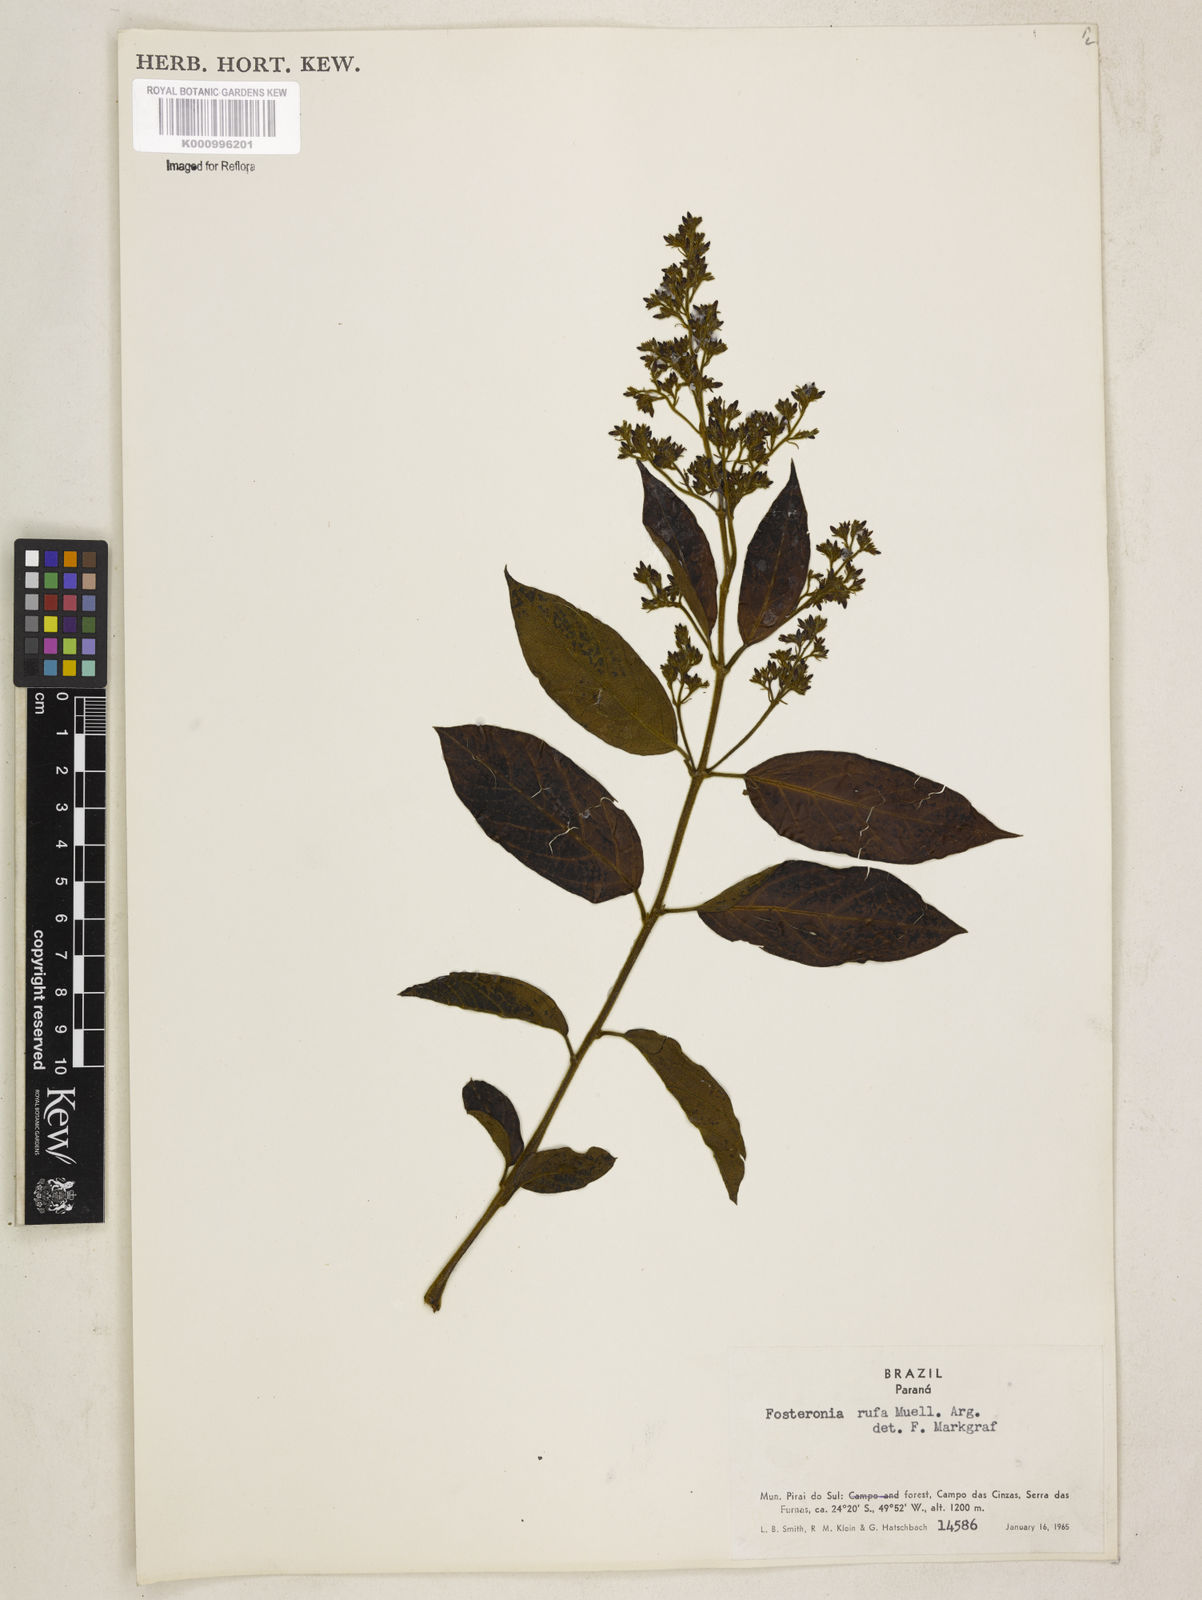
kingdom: Plantae
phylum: Tracheophyta
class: Magnoliopsida
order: Gentianales
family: Apocynaceae
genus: Forsteronia
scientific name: Forsteronia
